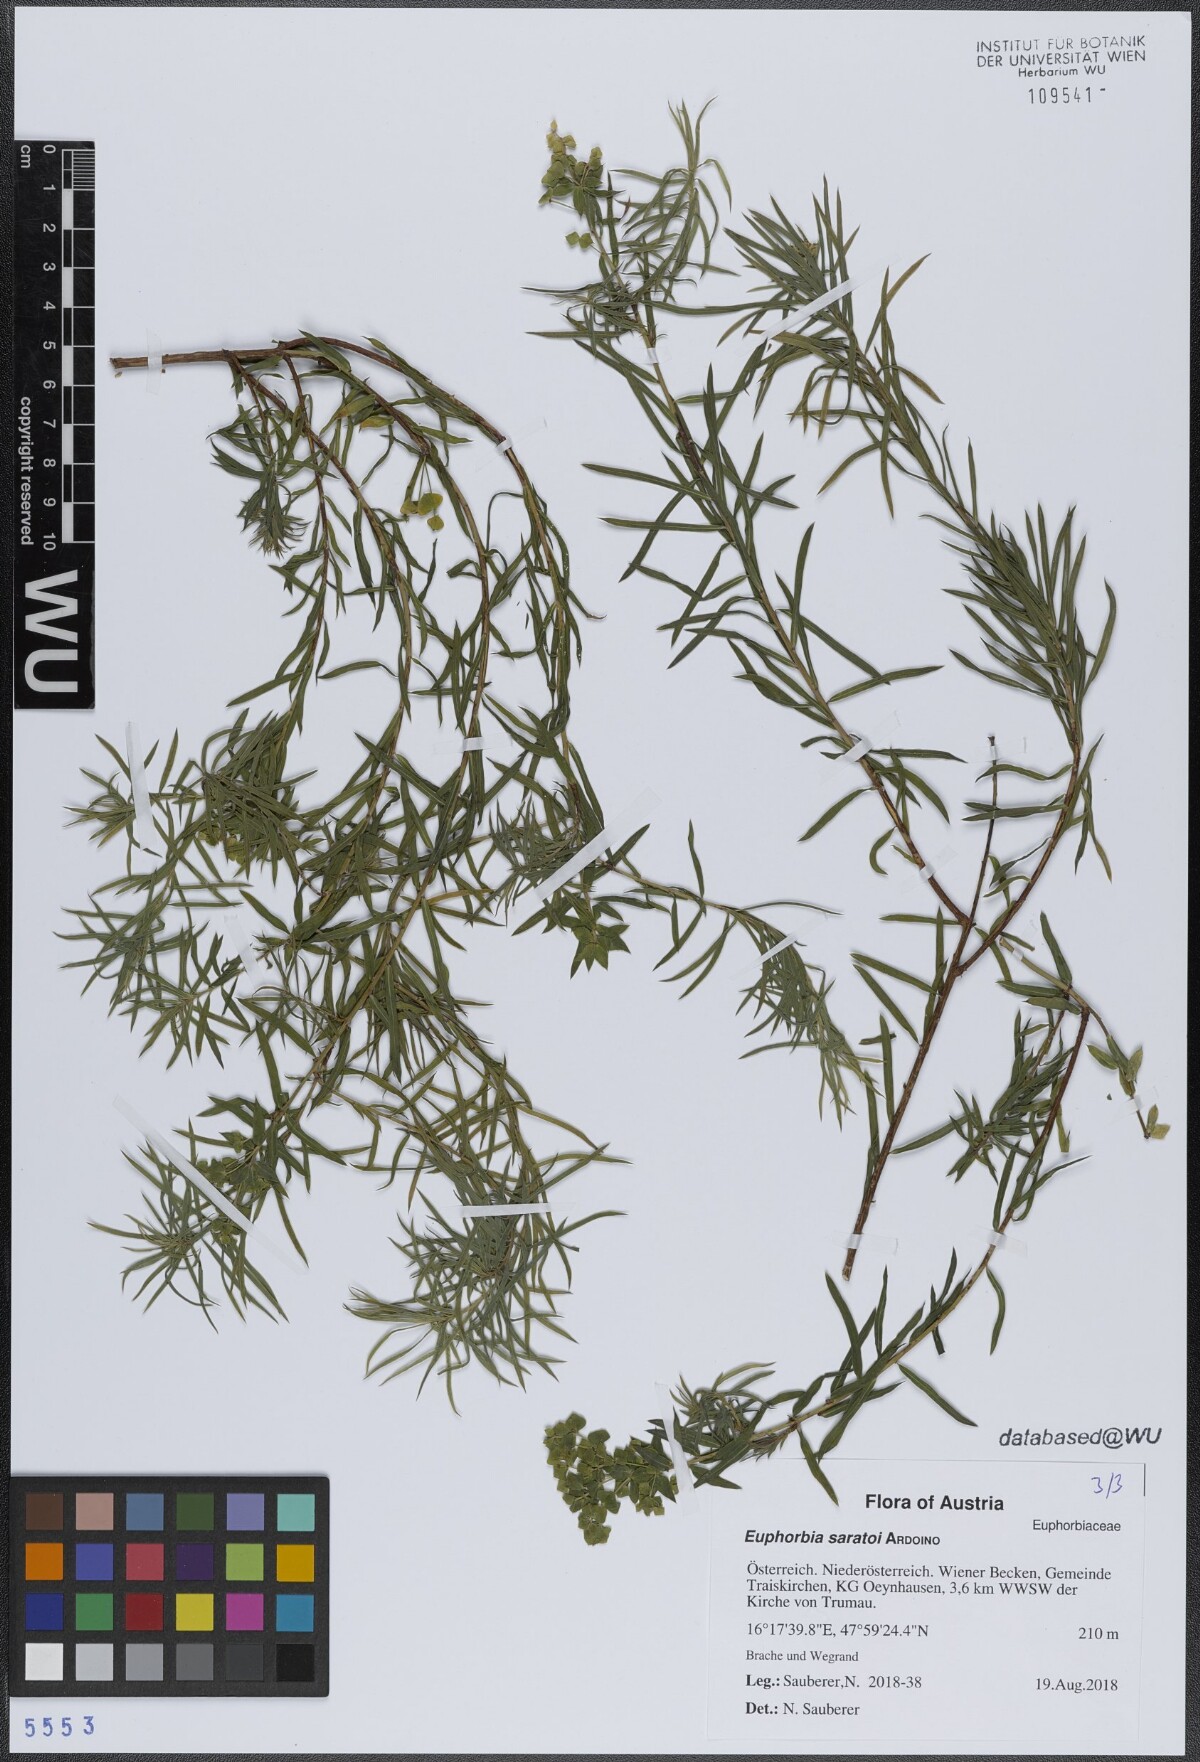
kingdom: Plantae
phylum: Tracheophyta
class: Magnoliopsida
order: Malpighiales
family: Euphorbiaceae
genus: Euphorbia
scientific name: Euphorbia saratoi
